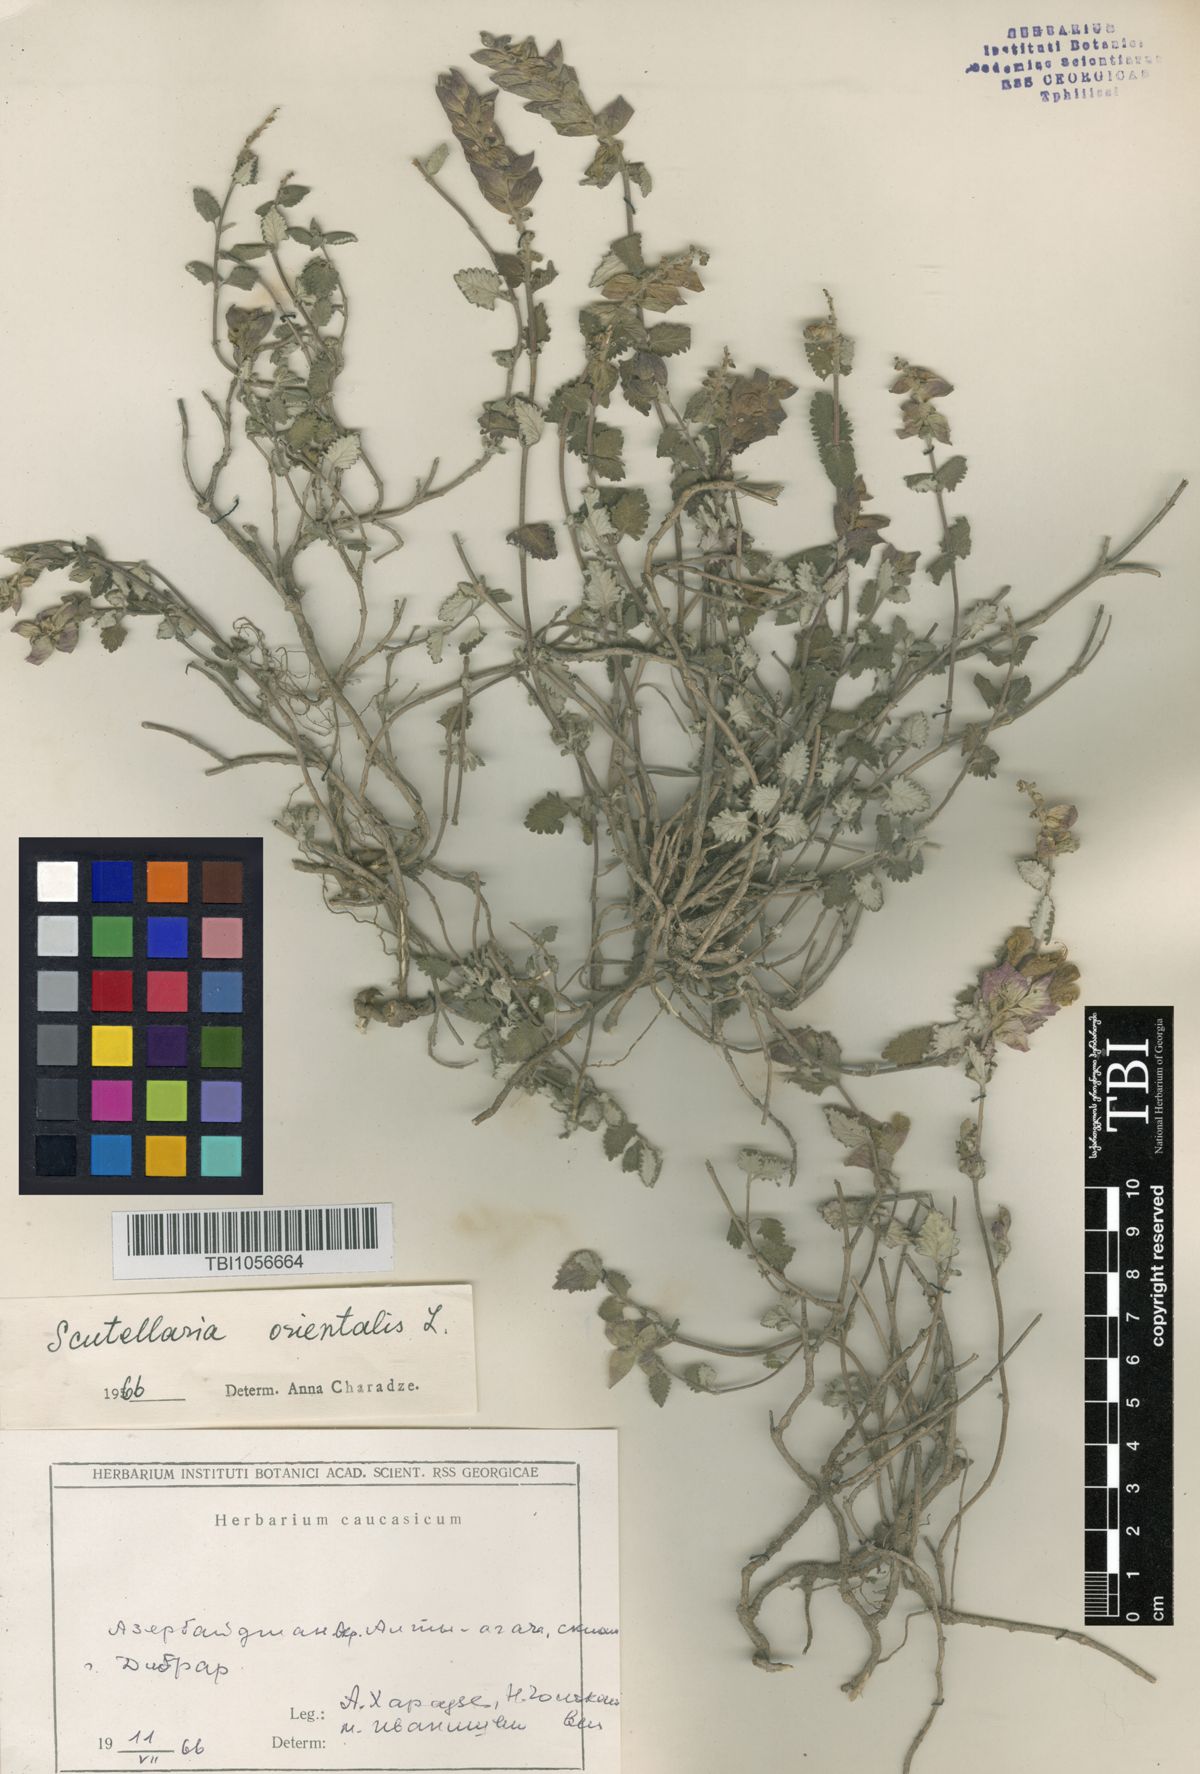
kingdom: Plantae
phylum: Tracheophyta
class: Magnoliopsida
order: Lamiales
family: Lamiaceae
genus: Scutellaria
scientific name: Scutellaria orientalis
